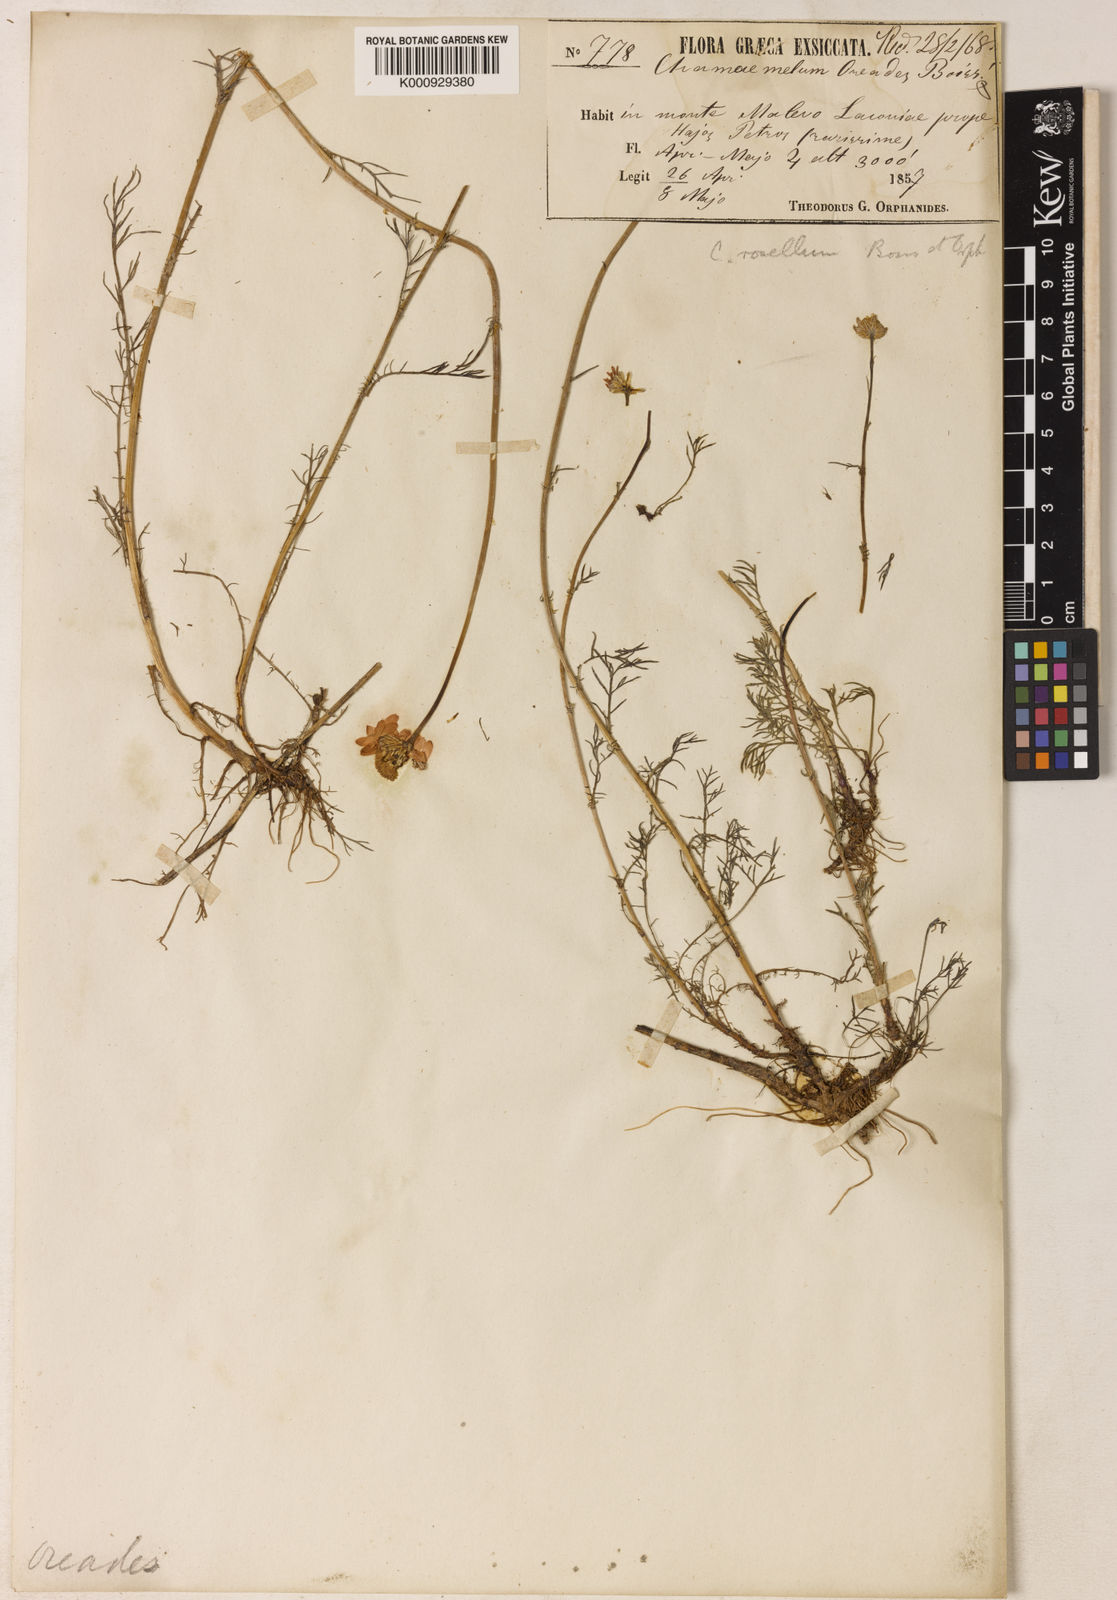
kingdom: Plantae
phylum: Tracheophyta
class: Magnoliopsida
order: Asterales
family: Asteraceae
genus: Tripleurospermum
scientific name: Tripleurospermum rosellum
